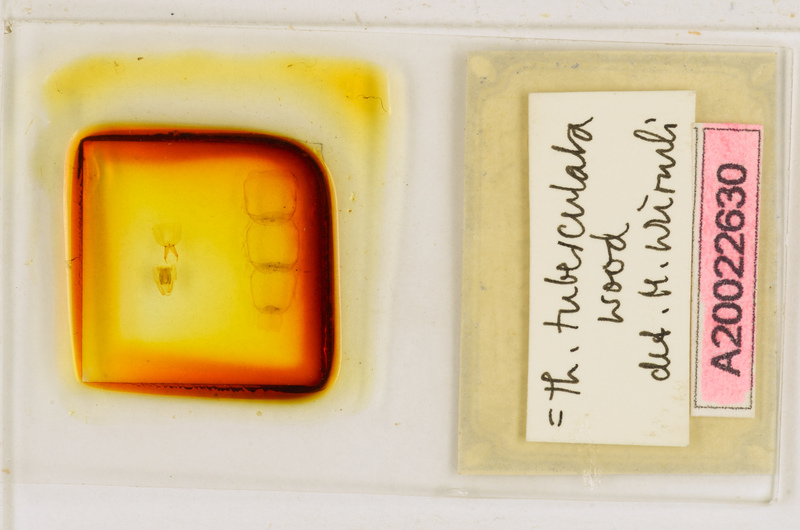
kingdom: Animalia
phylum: Arthropoda
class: Chilopoda
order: Scutigeromorpha
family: Scutigeridae
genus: Thereuonema
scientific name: Thereuonema tuberculata
